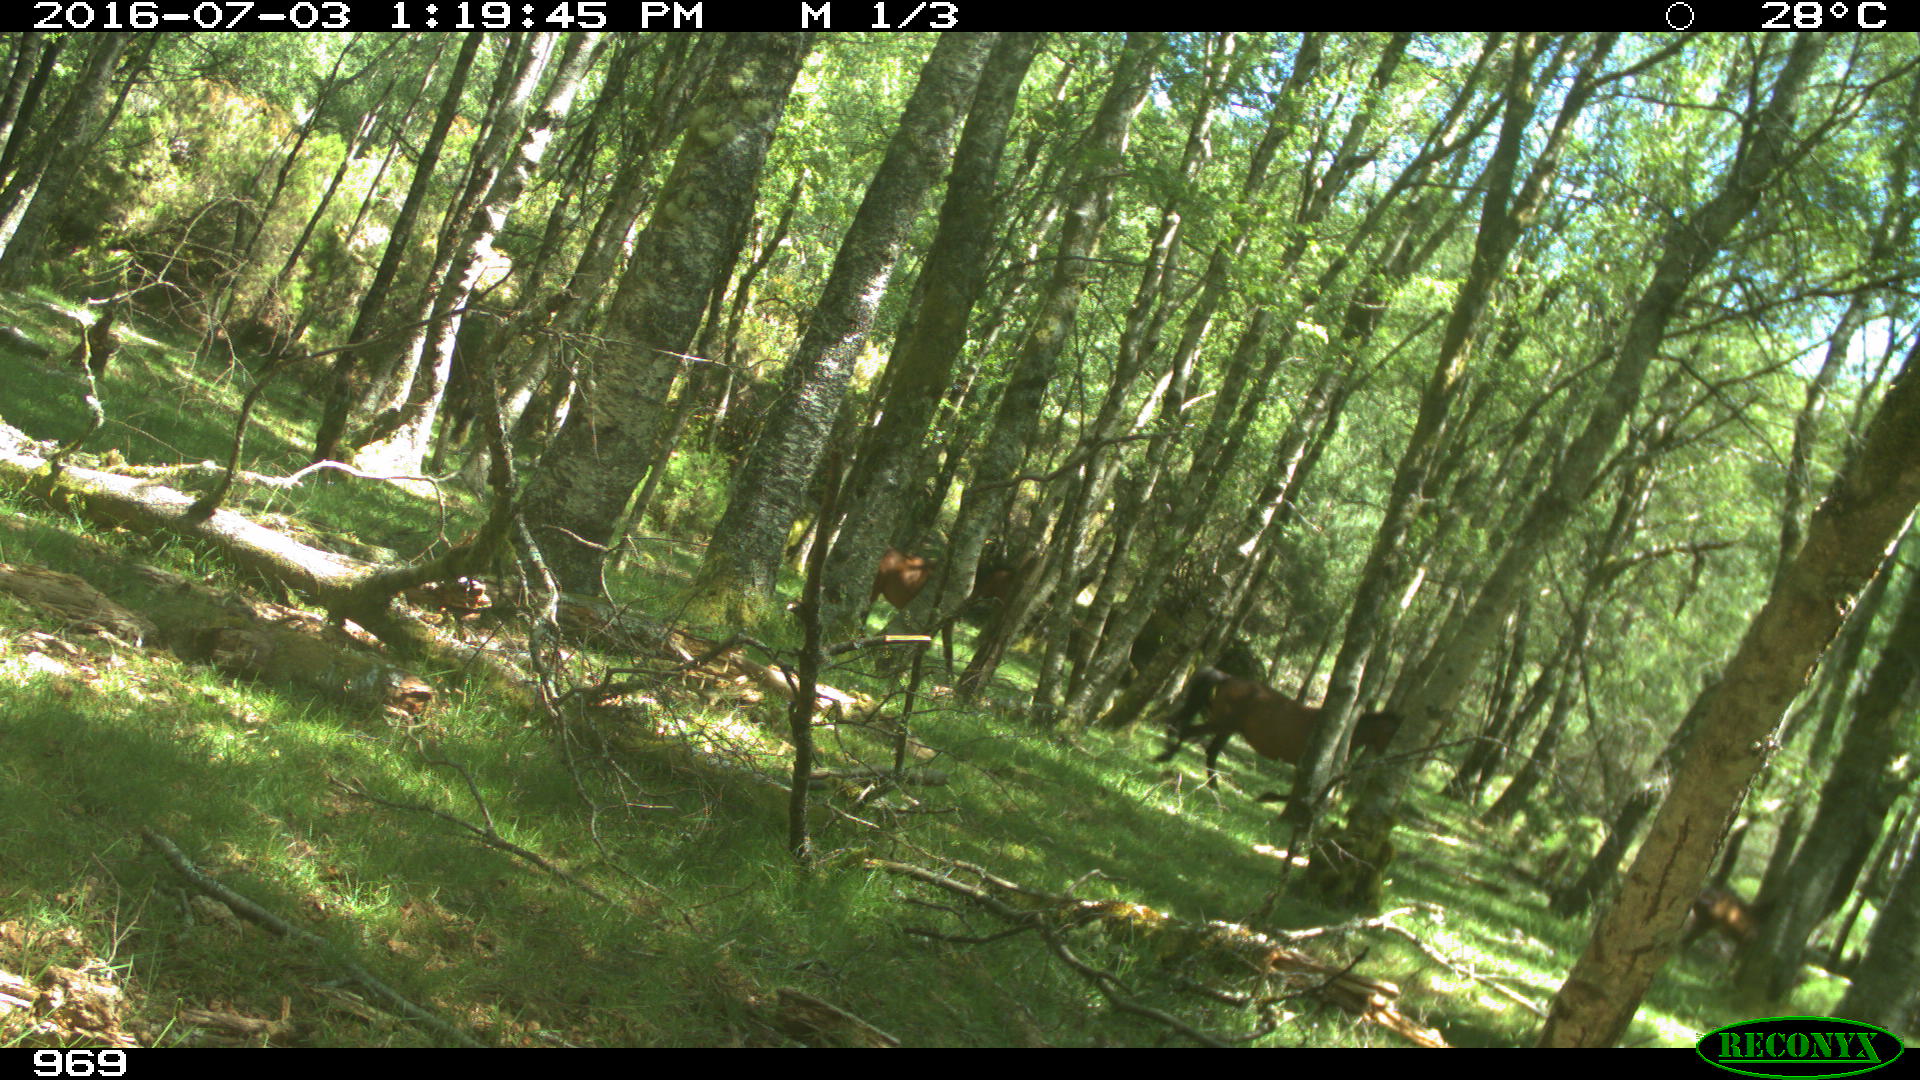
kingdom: Animalia
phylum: Chordata
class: Mammalia
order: Perissodactyla
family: Equidae
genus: Equus
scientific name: Equus caballus
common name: Horse
